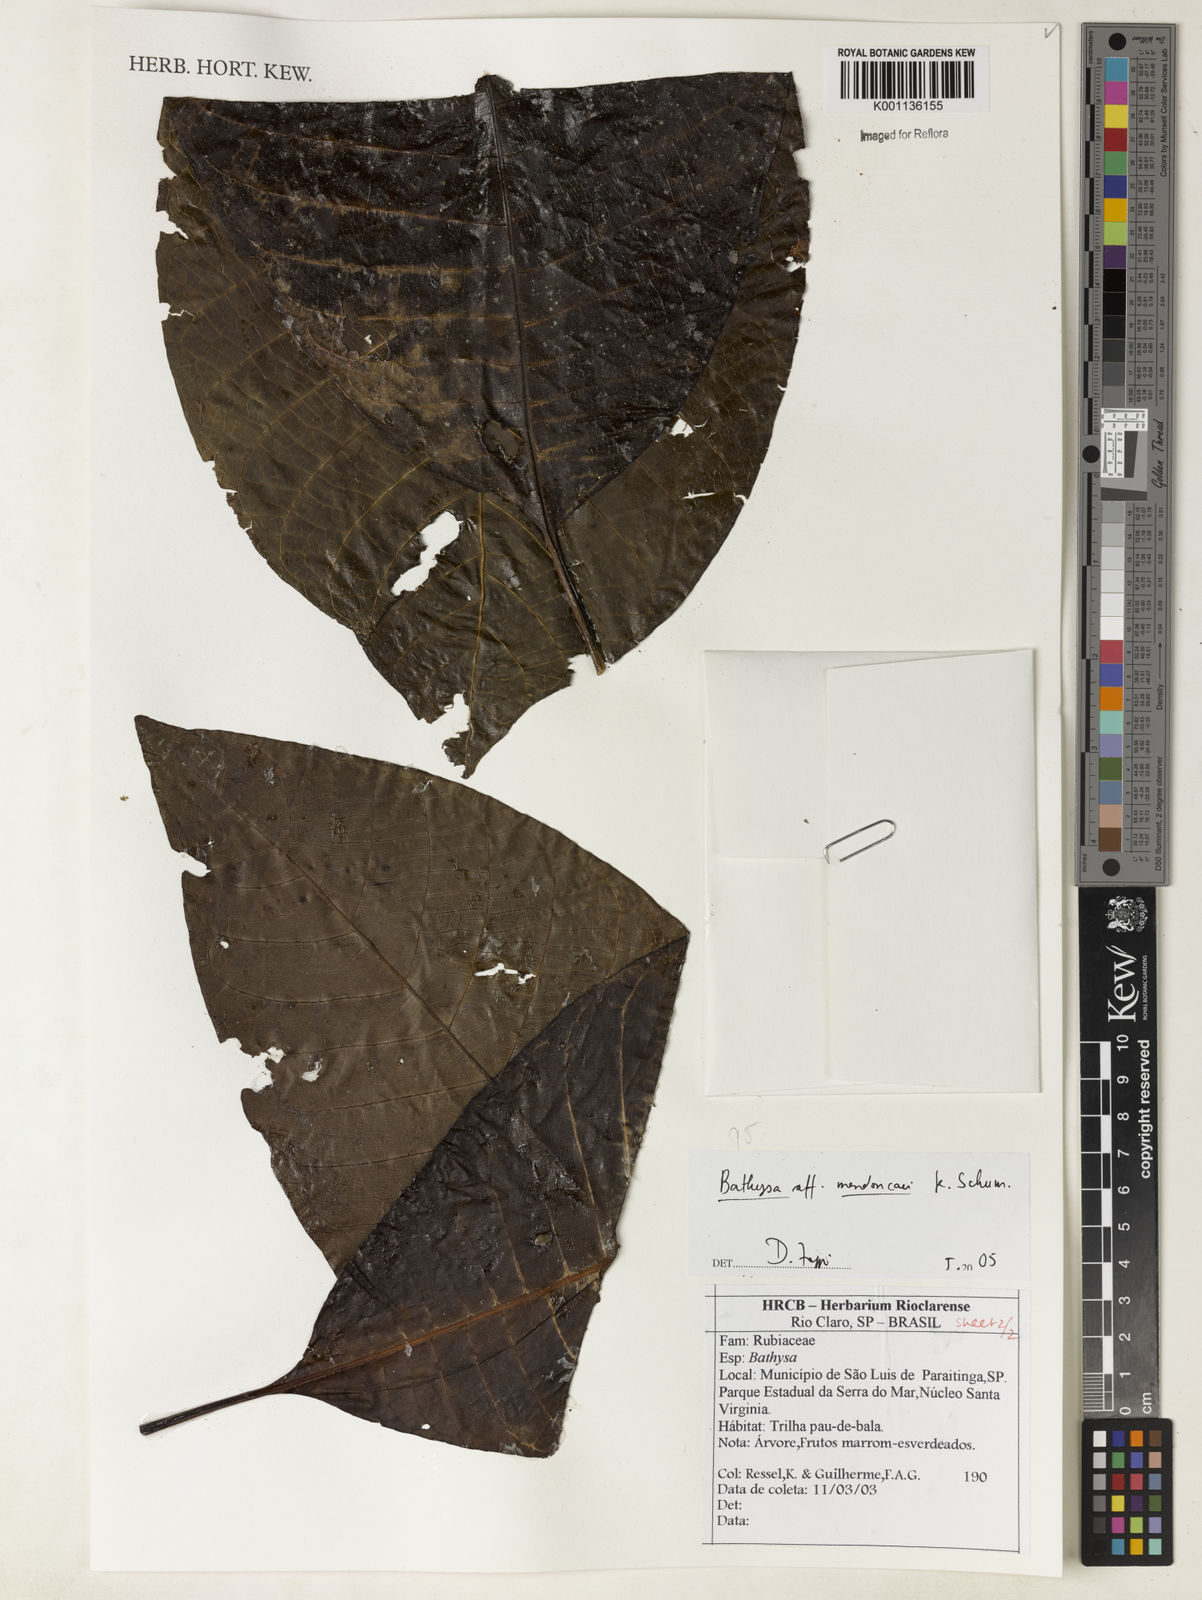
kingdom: Plantae
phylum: Tracheophyta
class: Magnoliopsida
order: Gentianales
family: Rubiaceae
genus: Bathysa
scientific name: Bathysa
